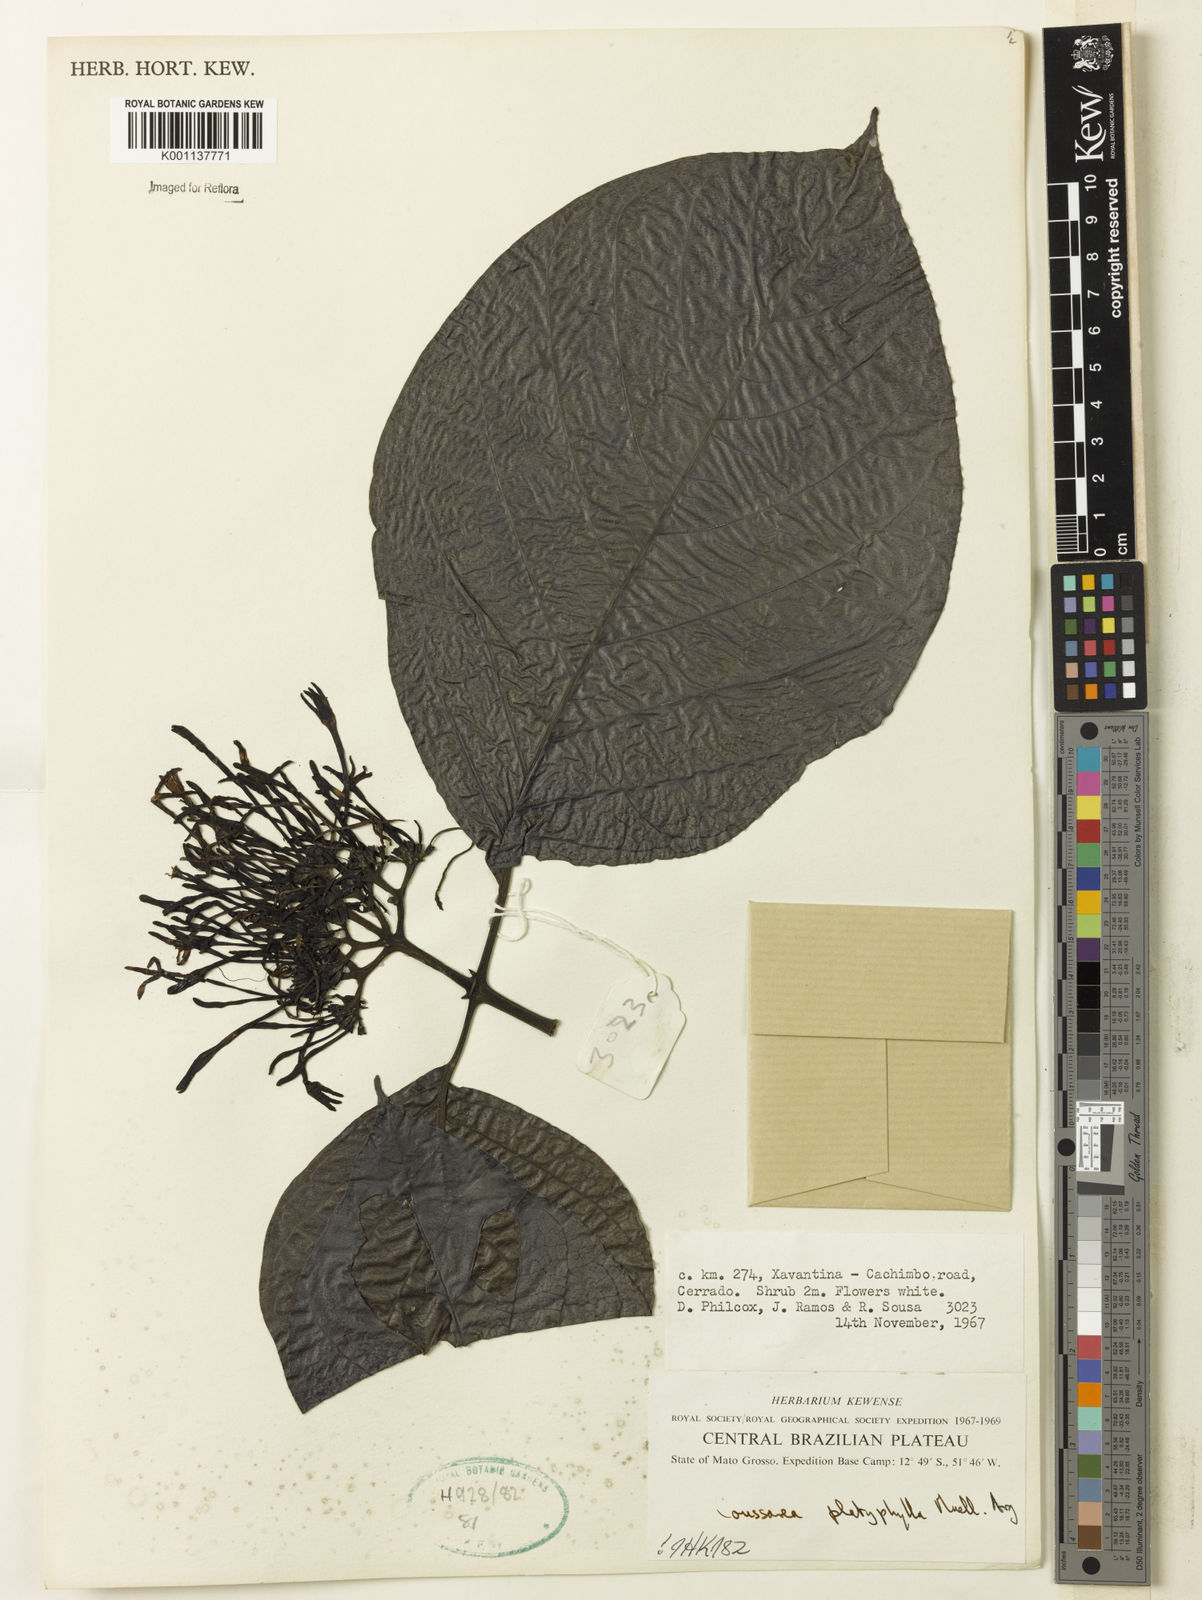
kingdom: Plantae
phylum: Tracheophyta
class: Magnoliopsida
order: Gentianales
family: Rubiaceae
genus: Coussarea
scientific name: Coussarea
